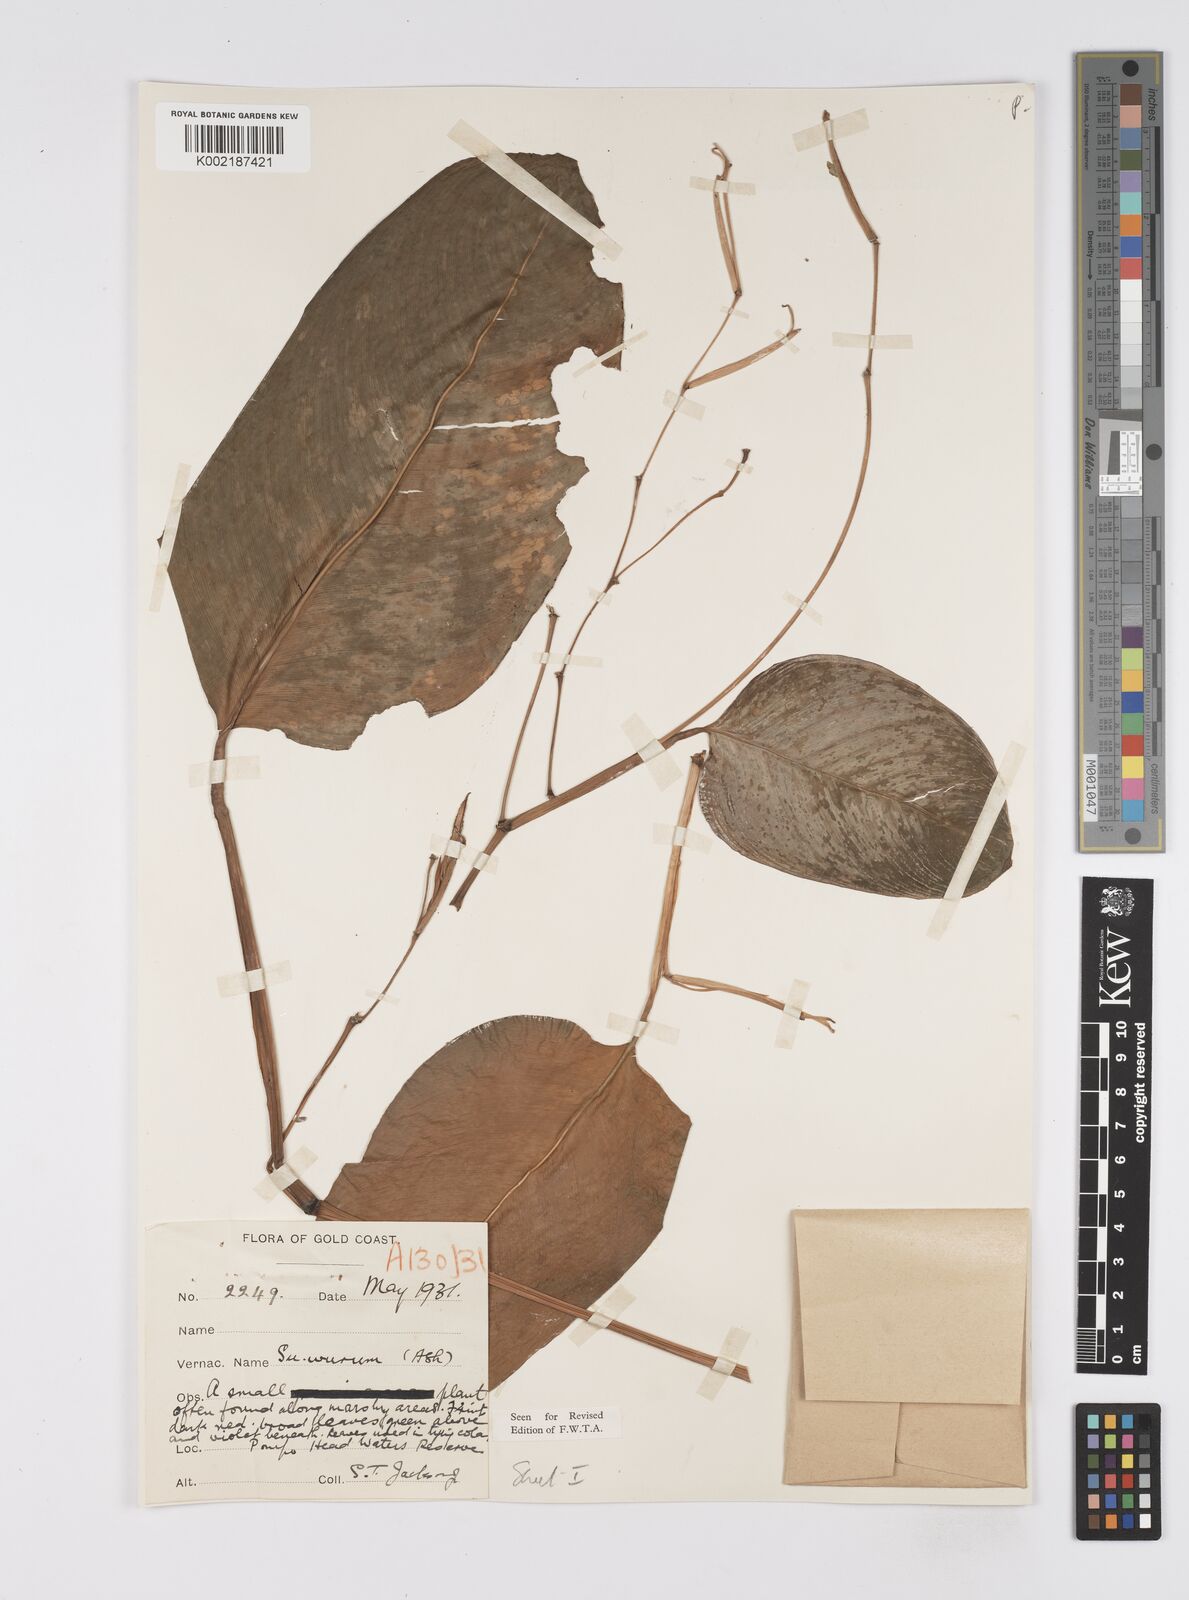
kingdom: Plantae
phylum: Tracheophyta
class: Liliopsida
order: Zingiberales
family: Marantaceae
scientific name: Marantaceae
